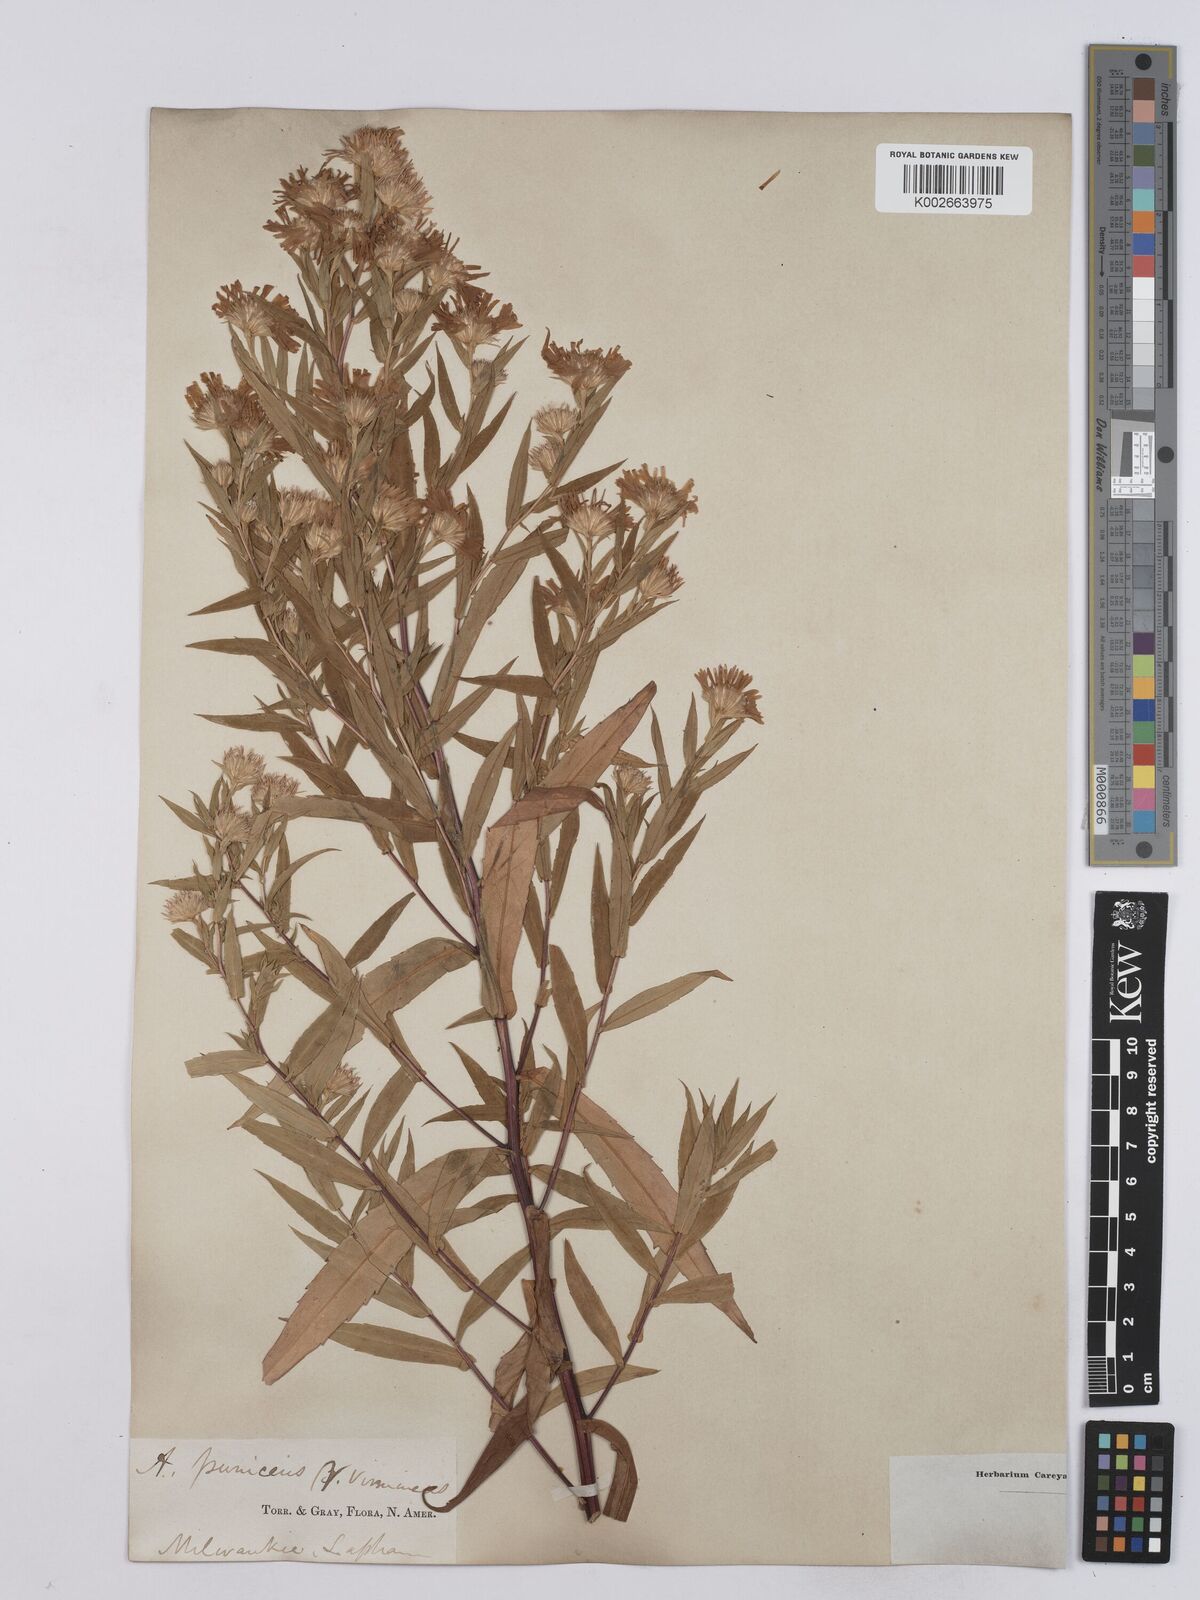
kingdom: Plantae
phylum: Tracheophyta
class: Magnoliopsida
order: Asterales
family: Asteraceae
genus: Symphyotrichum
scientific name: Symphyotrichum puniceum
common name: Bog aster
